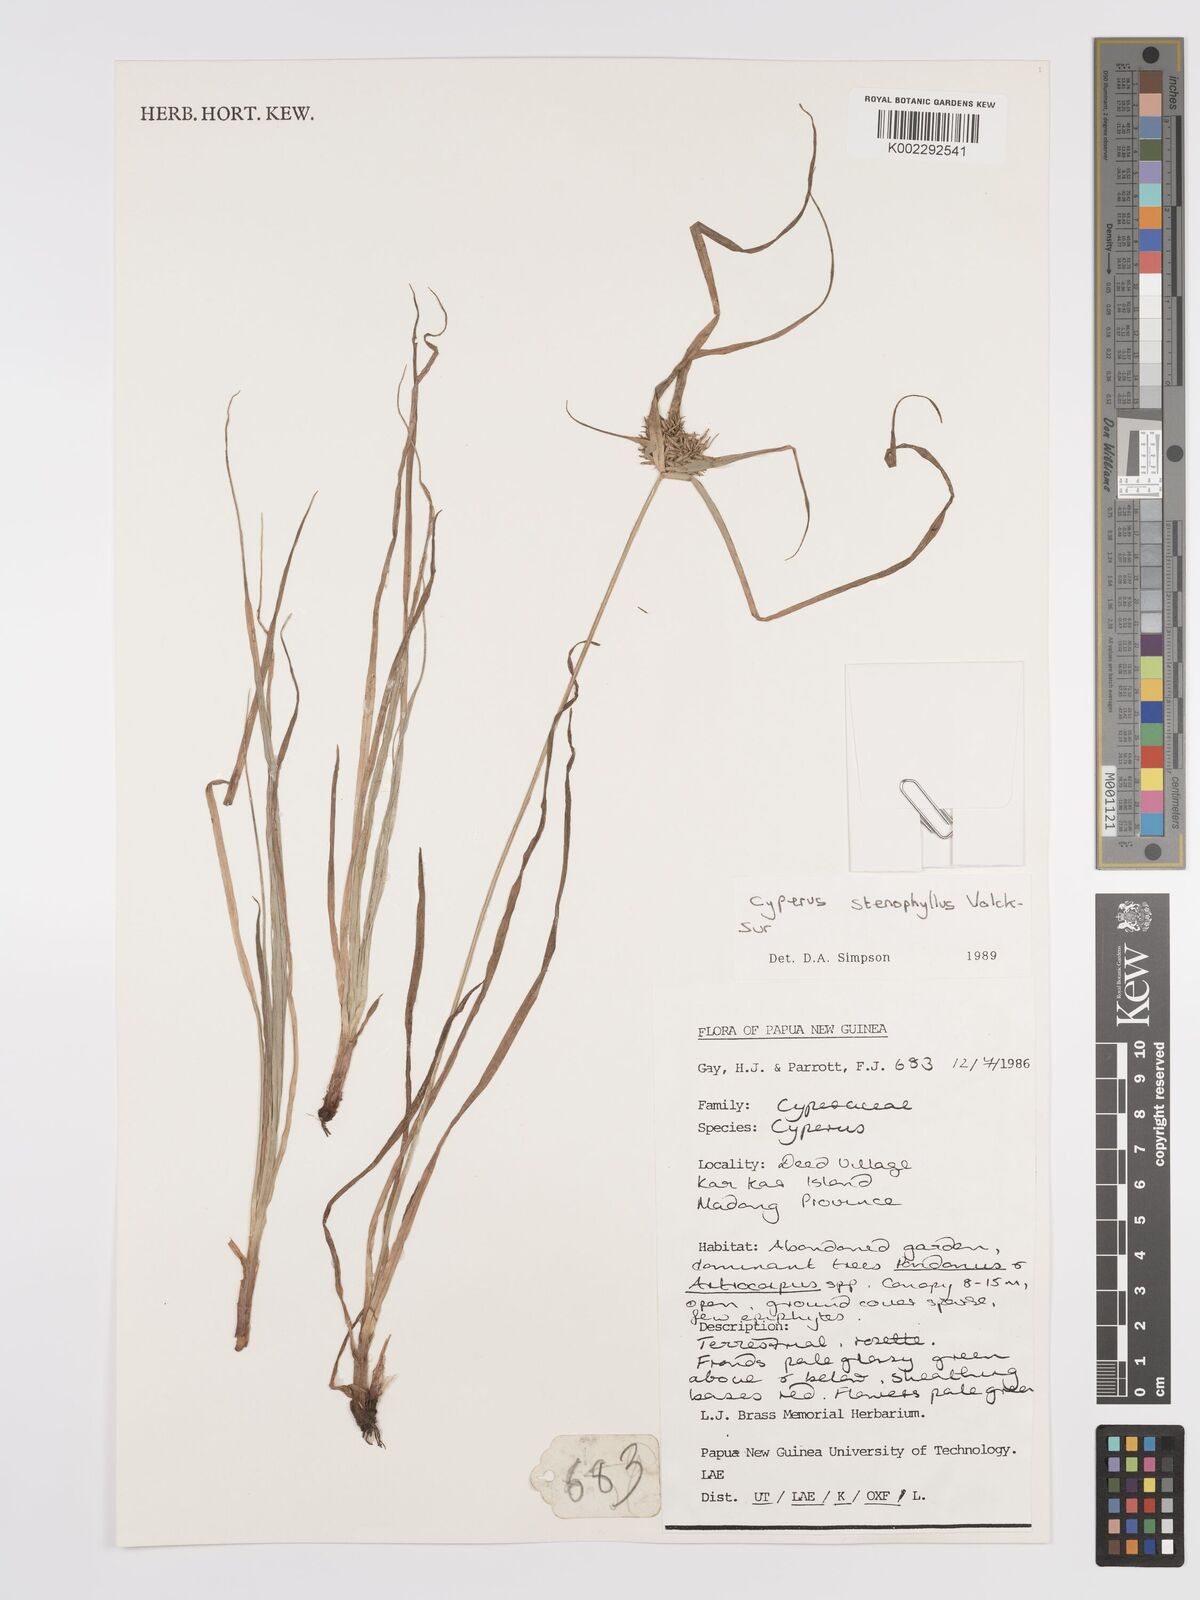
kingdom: Plantae
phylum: Tracheophyta
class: Liliopsida
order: Poales
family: Cyperaceae
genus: Cyperus
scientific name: Cyperus stenophyllus
